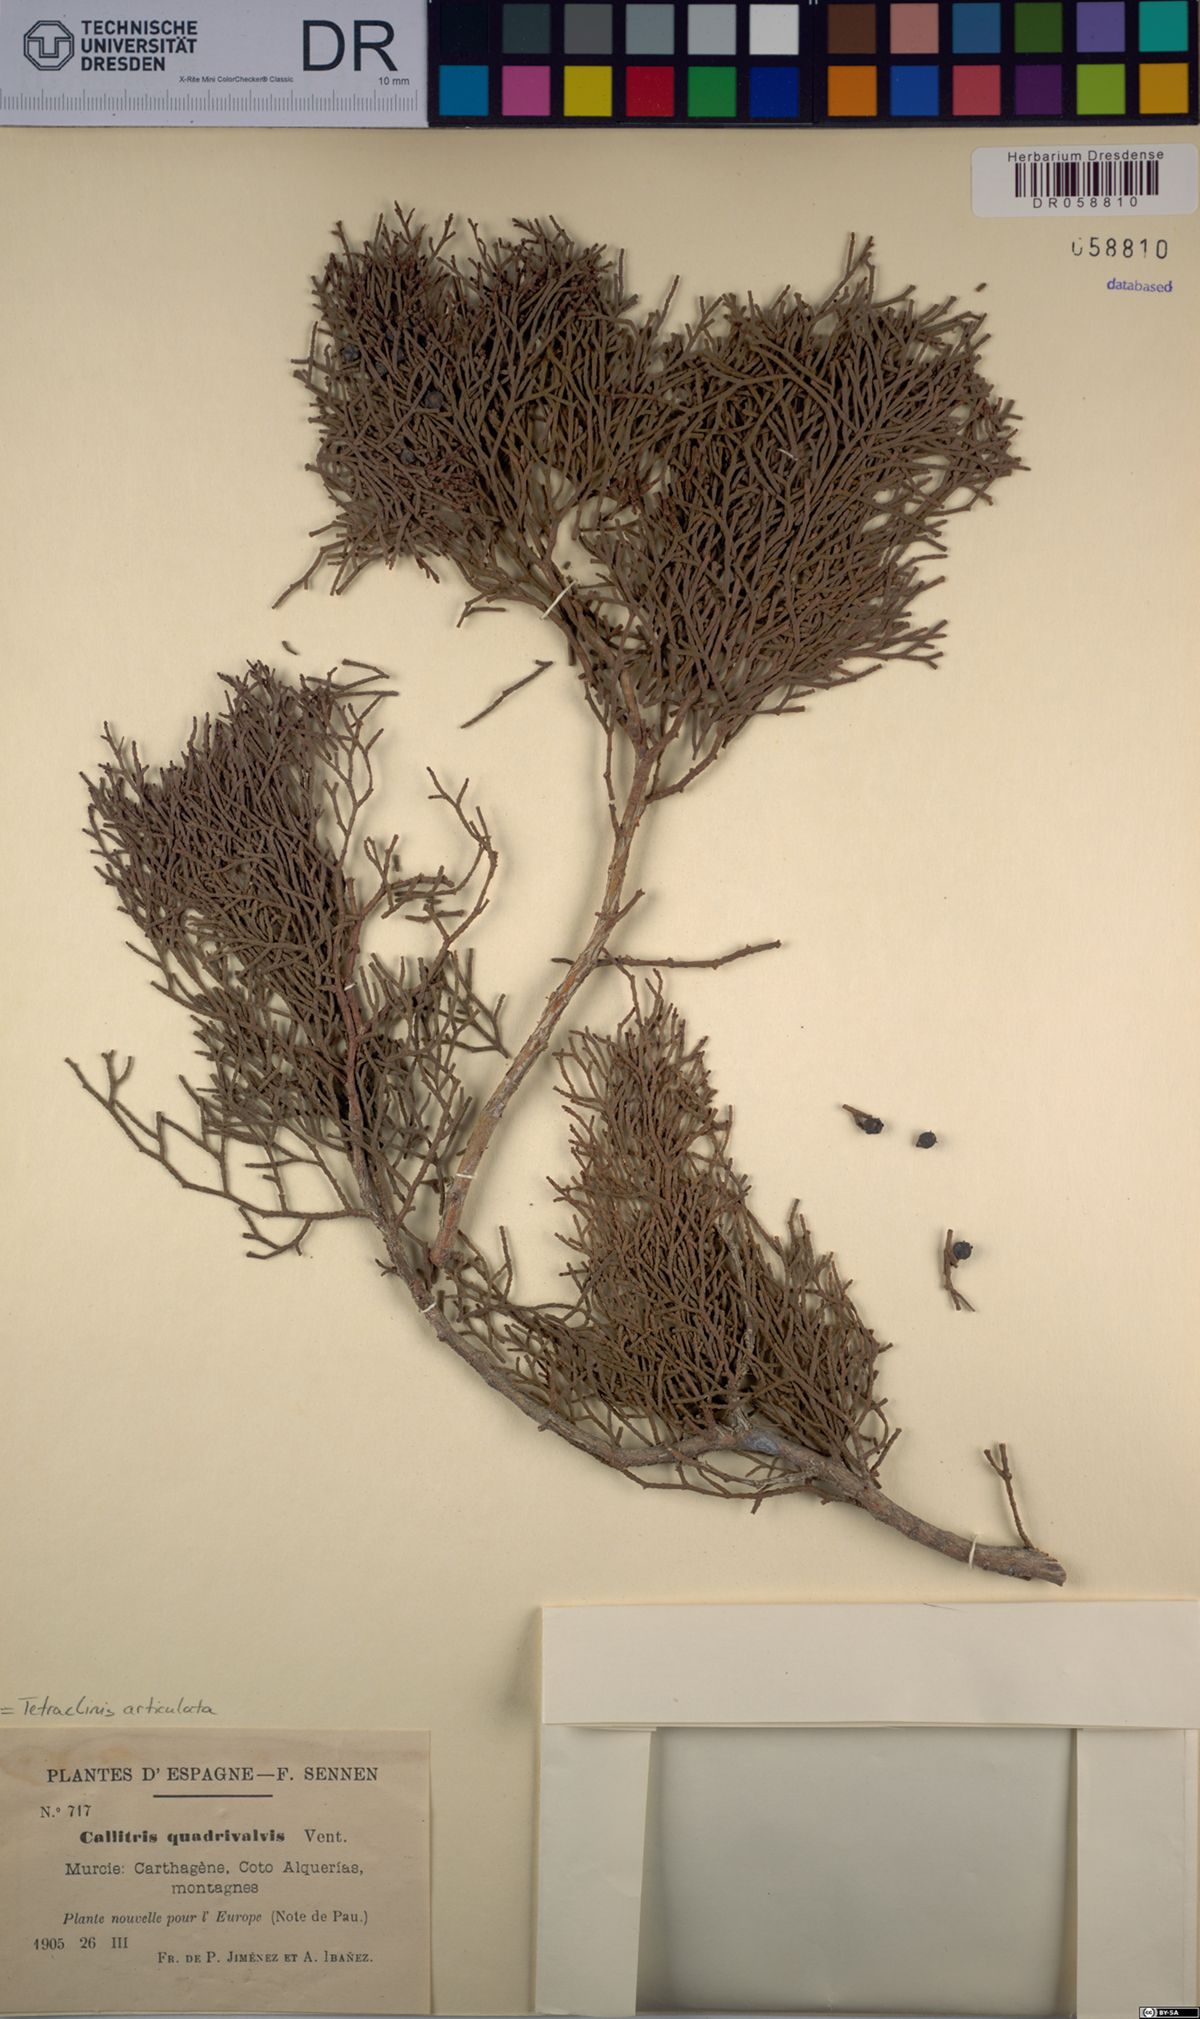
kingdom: Plantae
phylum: Tracheophyta
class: Pinopsida
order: Pinales
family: Cupressaceae
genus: Tetraclinis
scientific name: Tetraclinis articulata
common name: Sandarac
